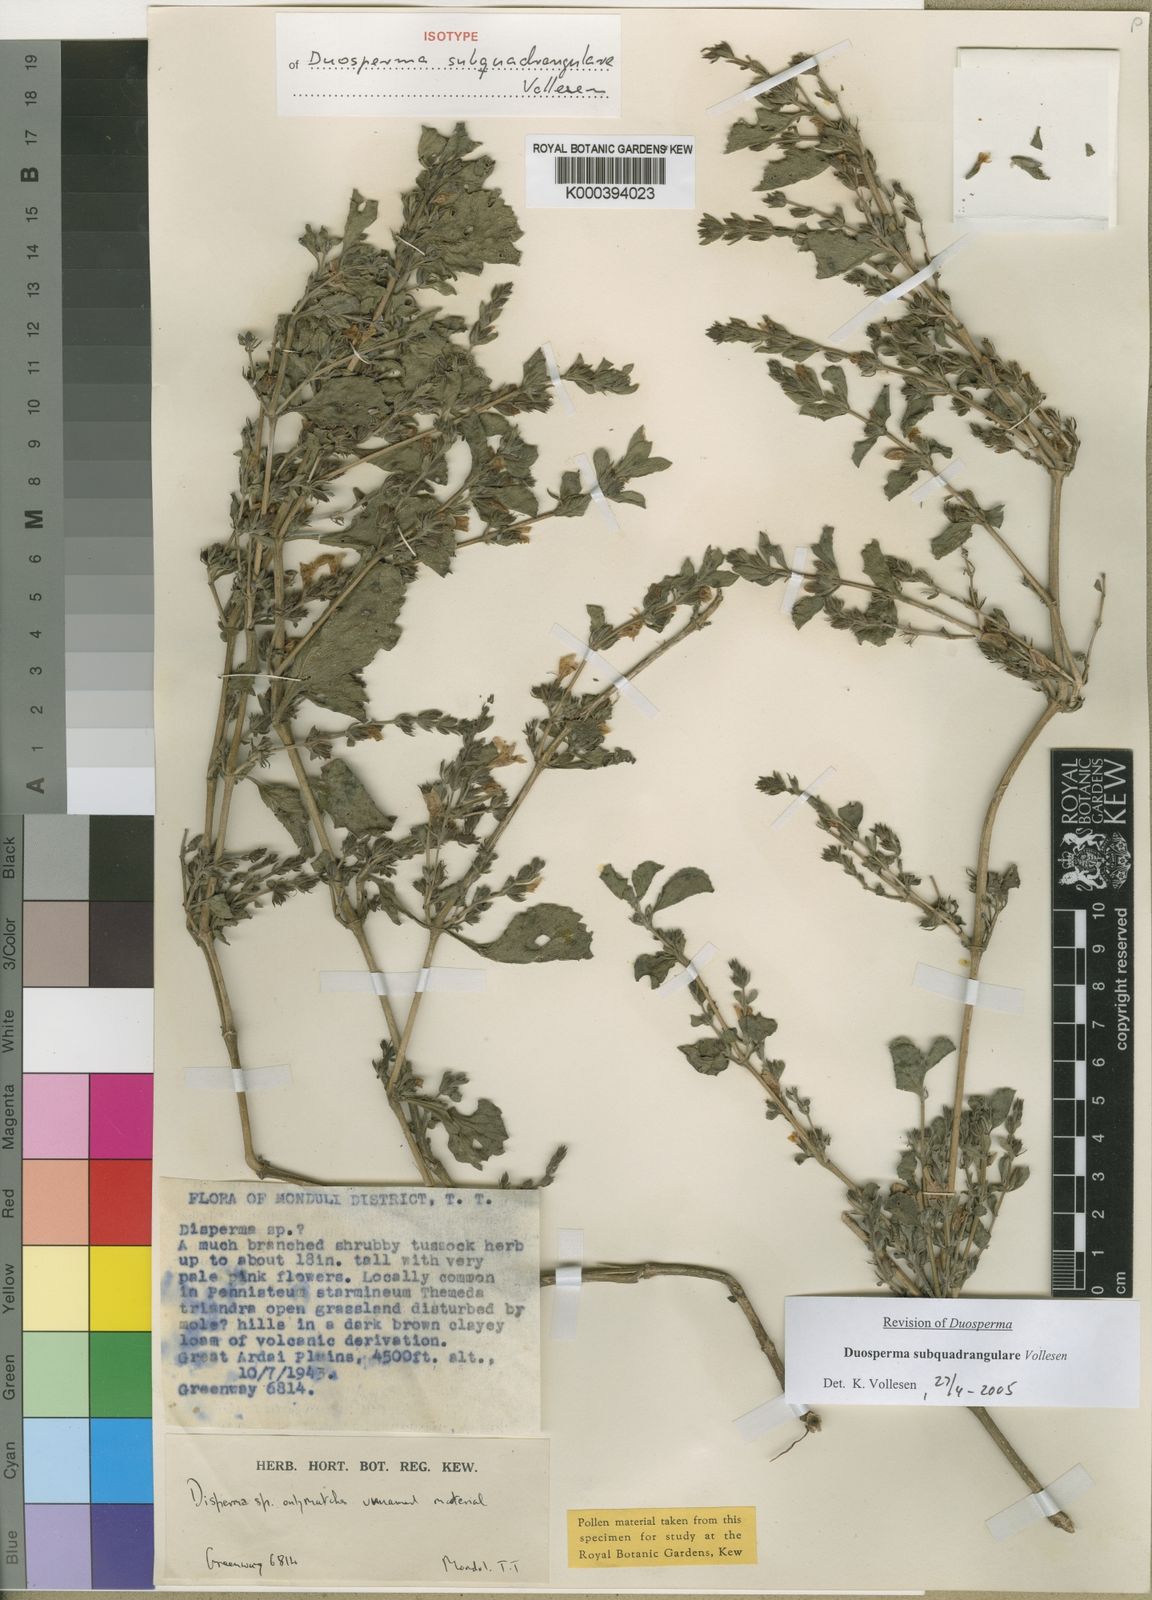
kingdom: Plantae
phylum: Tracheophyta
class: Magnoliopsida
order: Lamiales
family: Acanthaceae
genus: Duosperma
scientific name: Duosperma subquadrangulare
